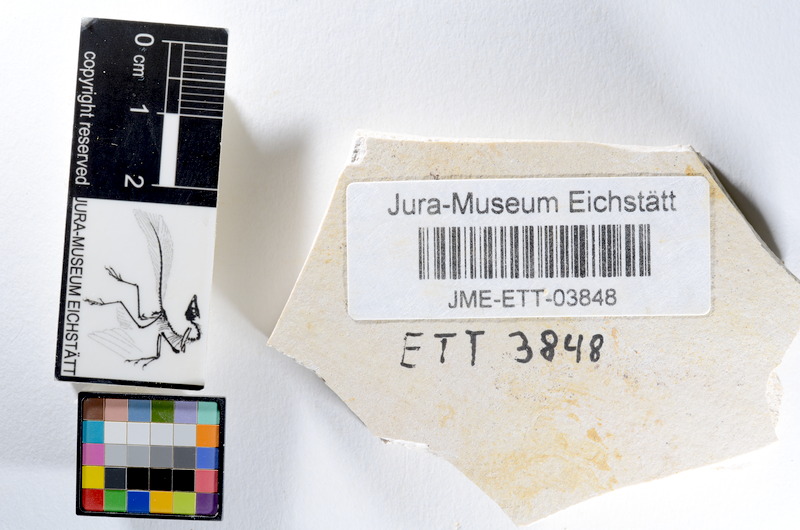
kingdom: Animalia
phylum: Chordata
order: Salmoniformes
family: Orthogonikleithridae
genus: Orthogonikleithrus
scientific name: Orthogonikleithrus hoelli
